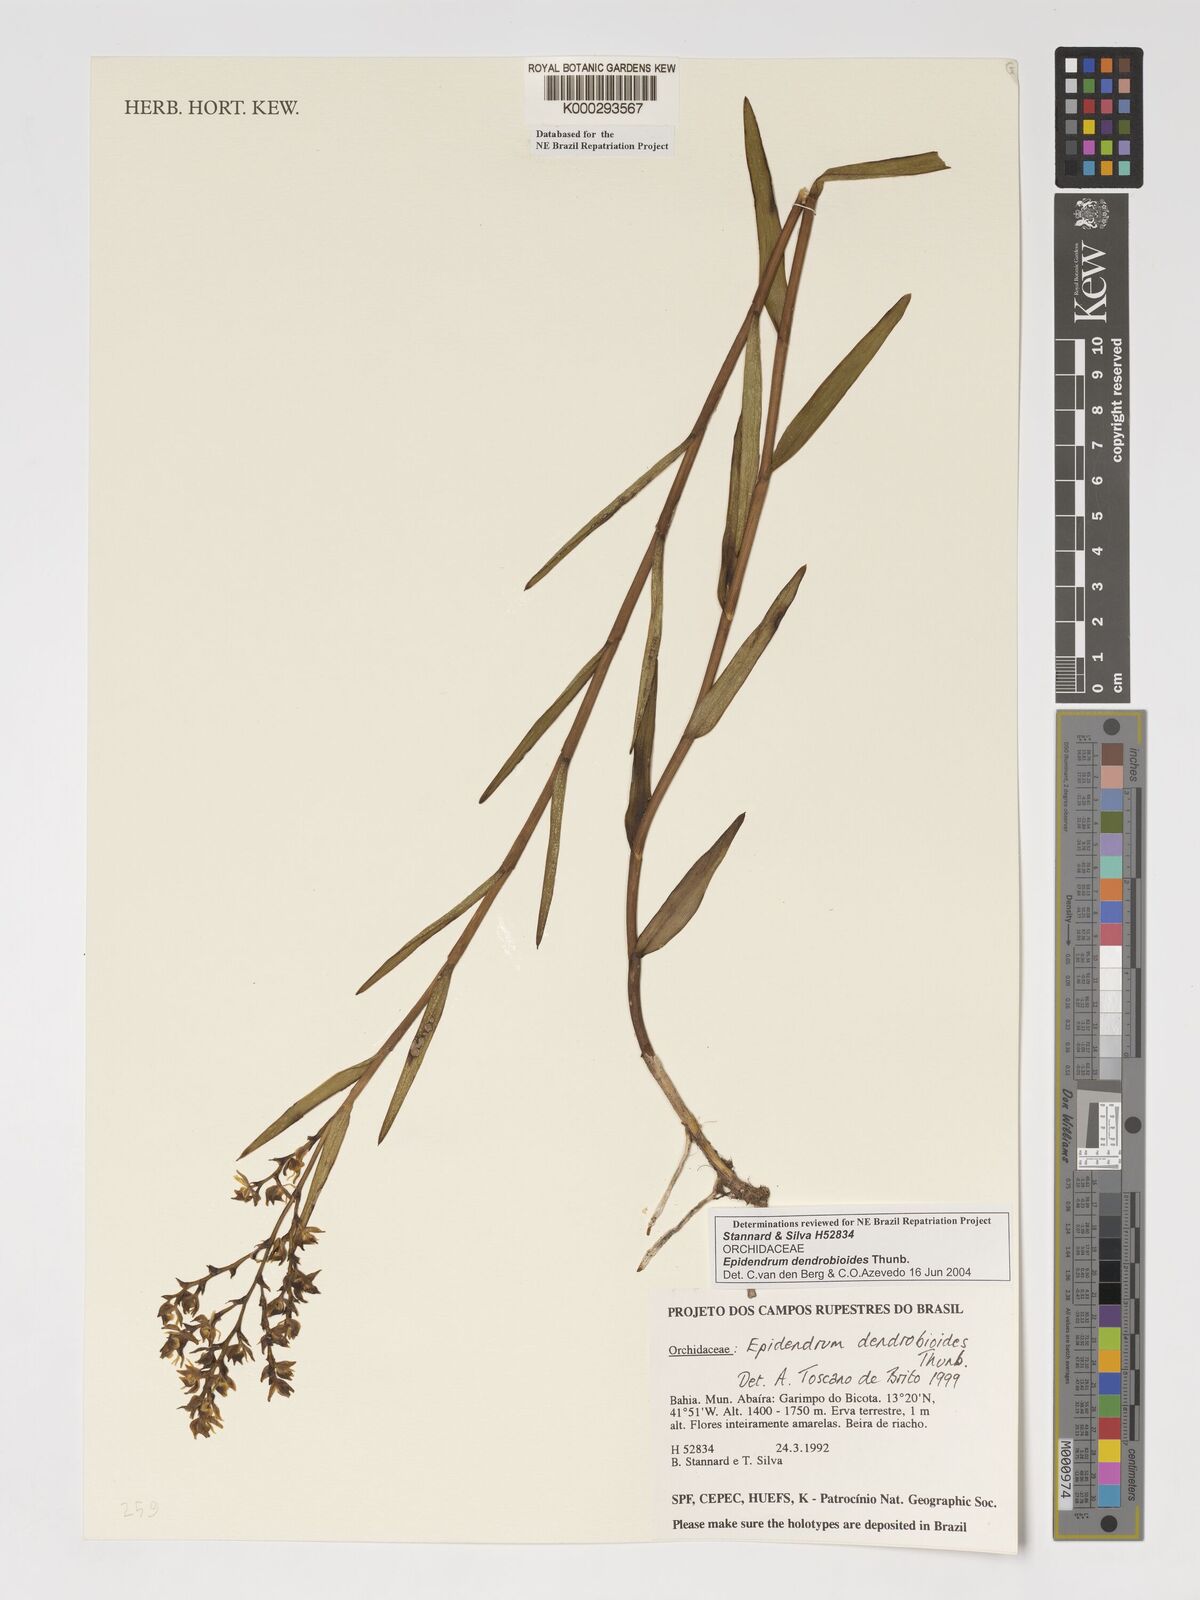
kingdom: Plantae
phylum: Tracheophyta
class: Liliopsida
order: Asparagales
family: Orchidaceae
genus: Epidendrum
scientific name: Epidendrum dendrobioides
